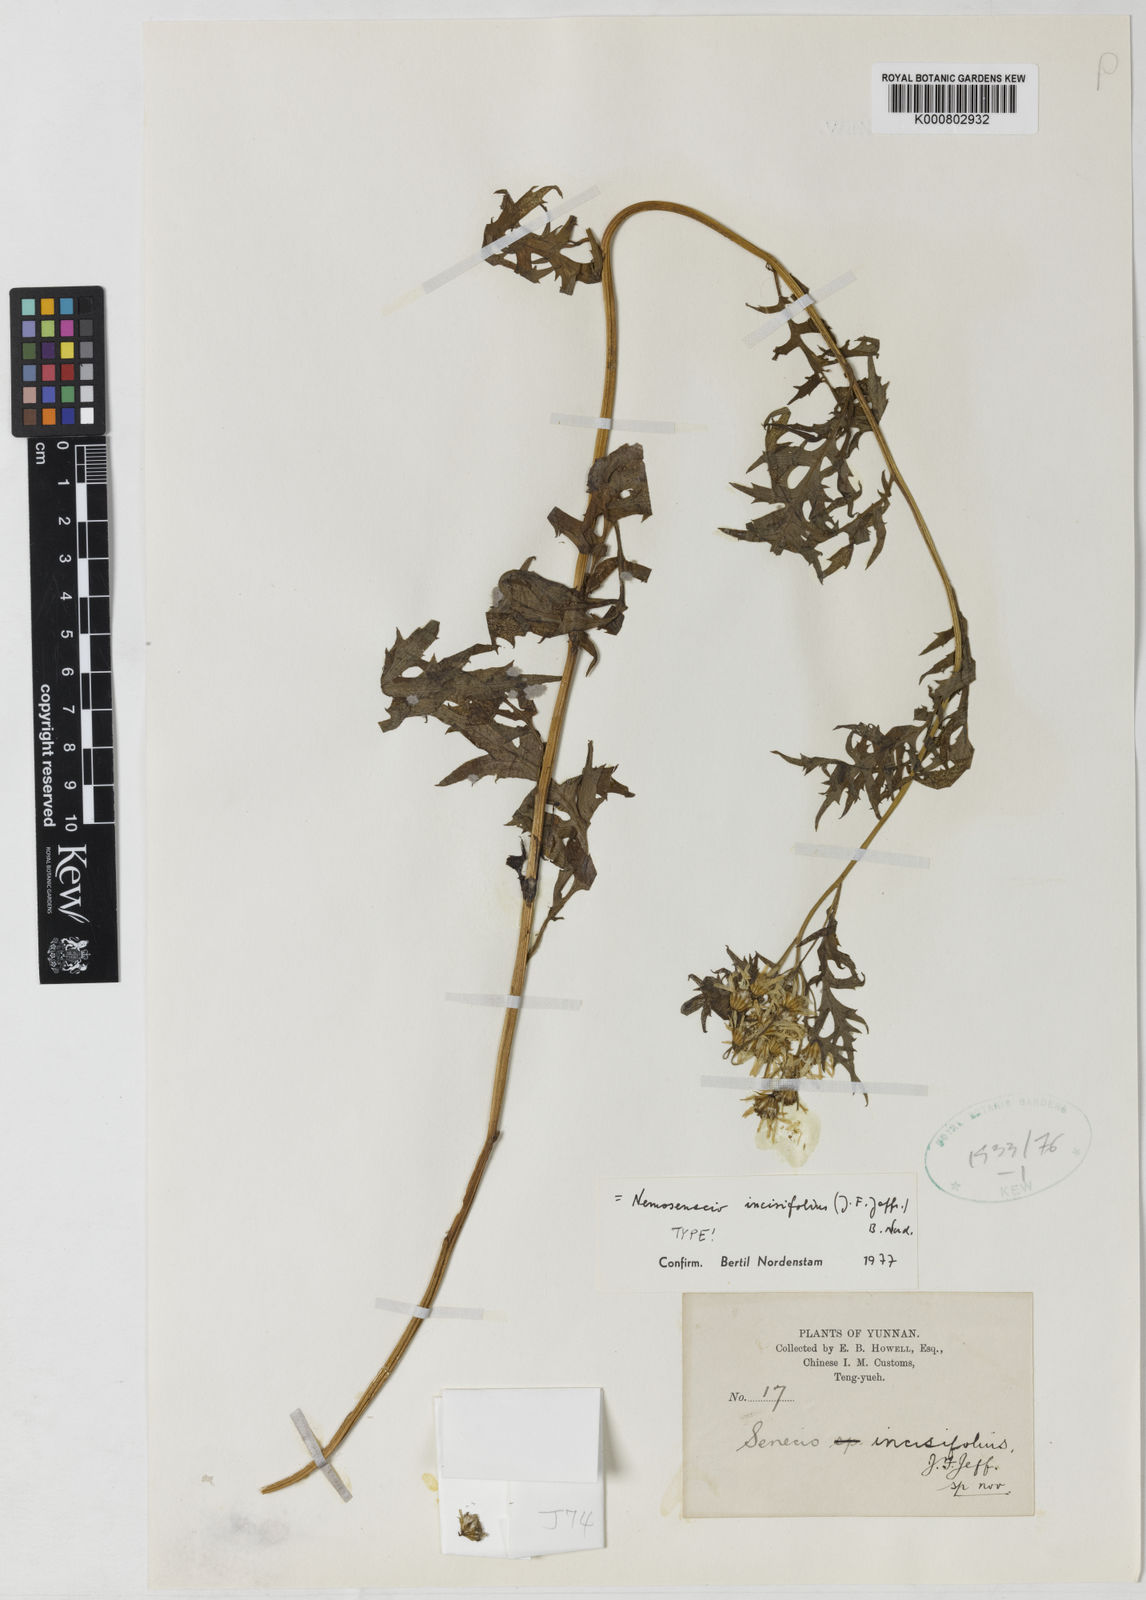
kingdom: Plantae
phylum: Tracheophyta
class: Magnoliopsida
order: Asterales
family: Asteraceae
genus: Nemosenecio
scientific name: Nemosenecio incisifolius
